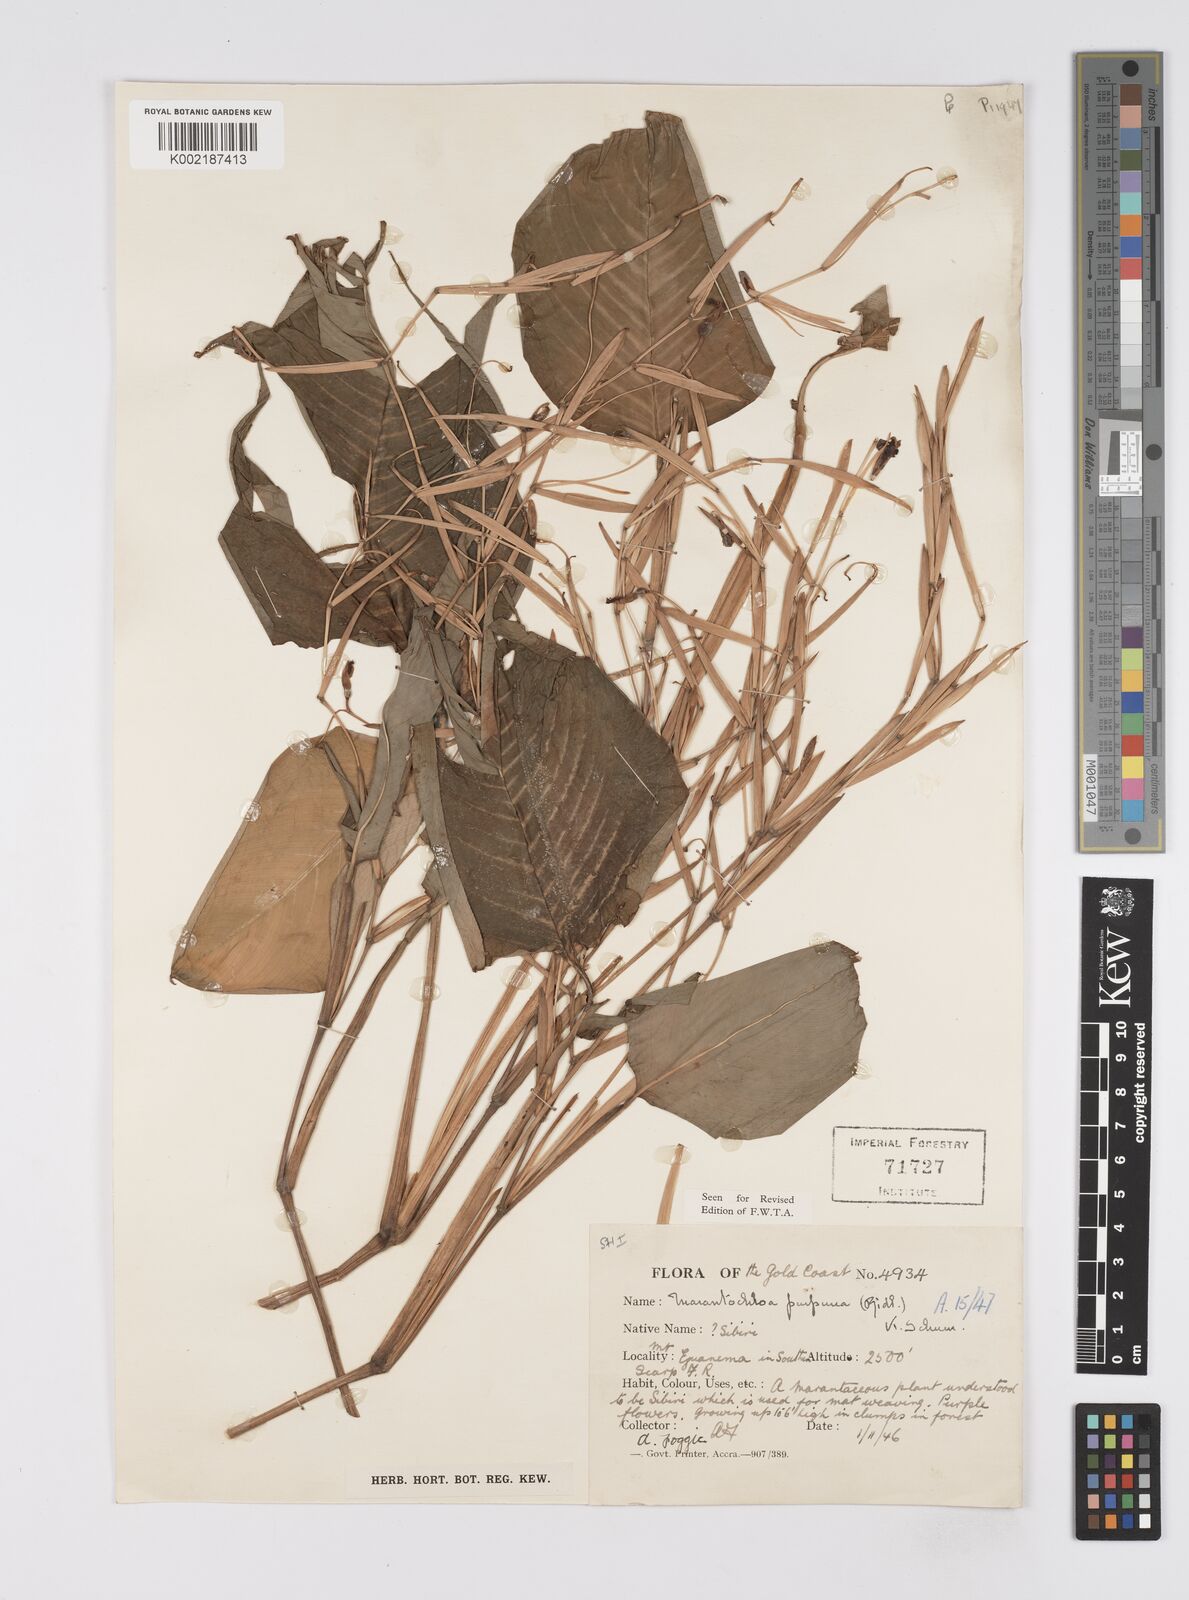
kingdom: Plantae
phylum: Tracheophyta
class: Liliopsida
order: Zingiberales
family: Marantaceae
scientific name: Marantaceae
